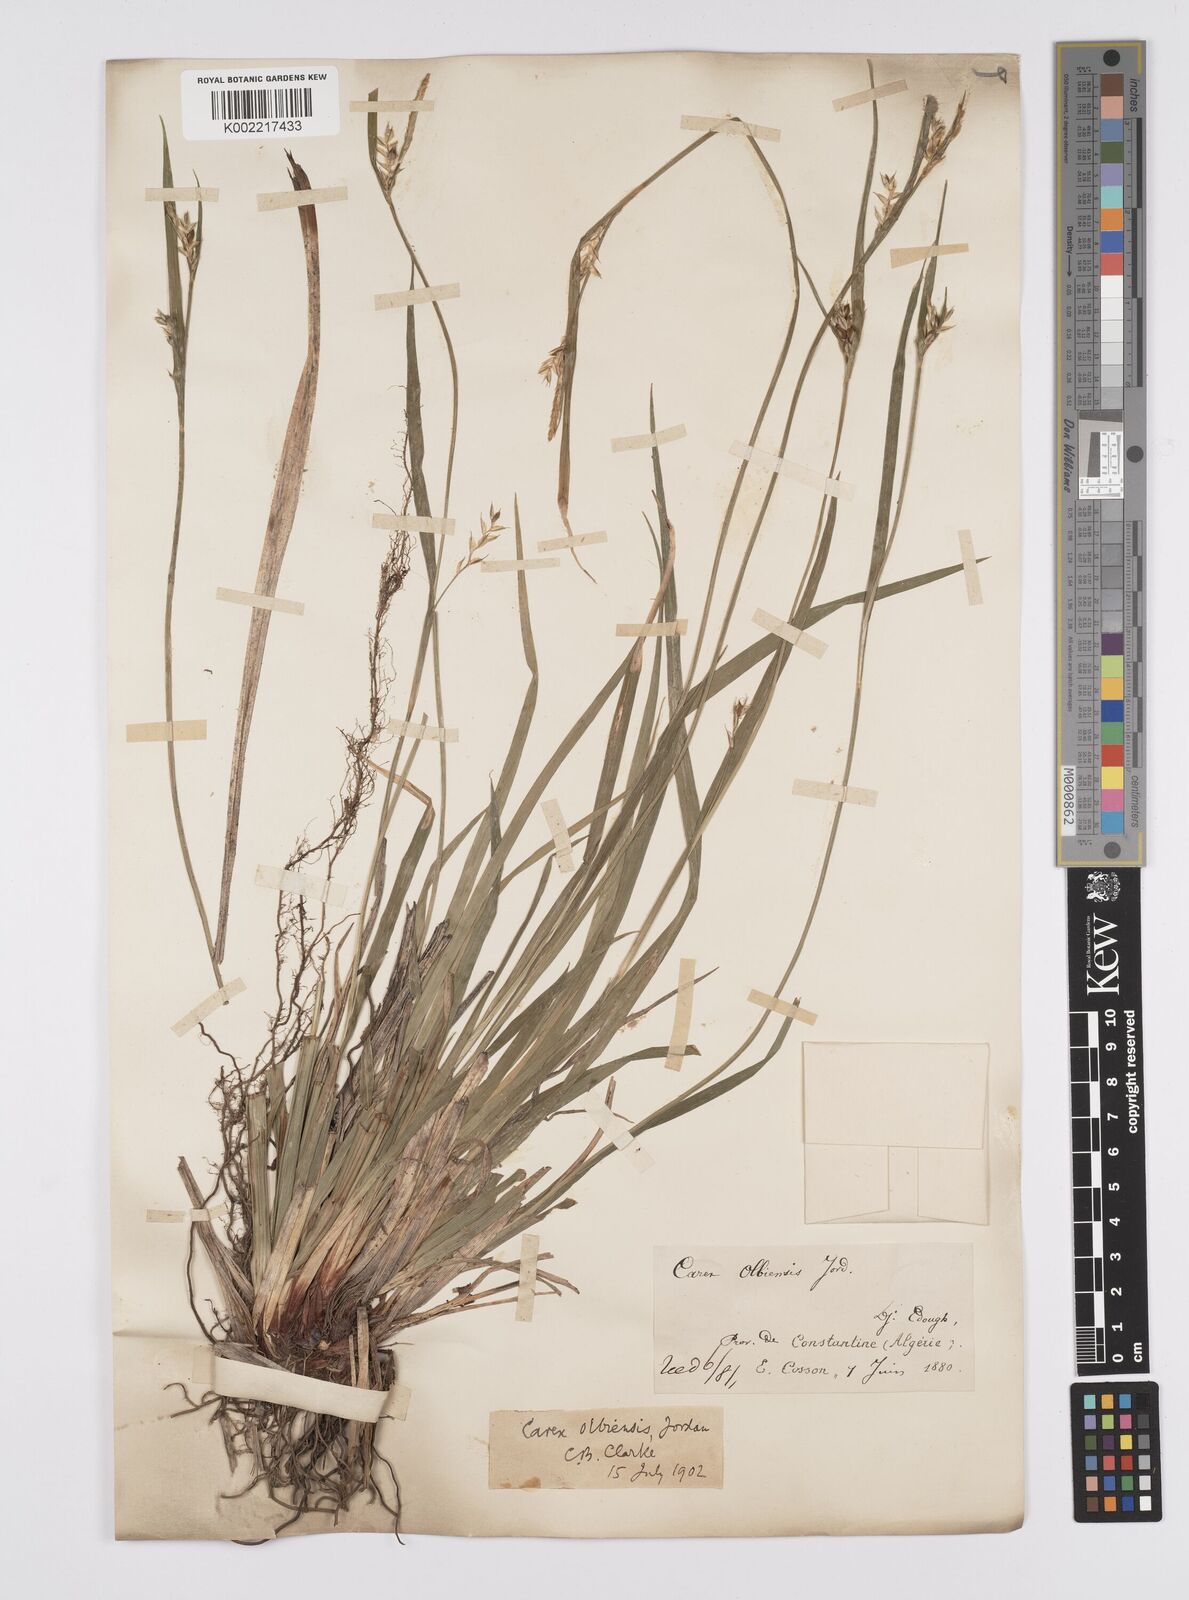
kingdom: Plantae
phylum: Tracheophyta
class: Liliopsida
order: Poales
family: Cyperaceae
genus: Carex
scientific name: Carex olbiensis
